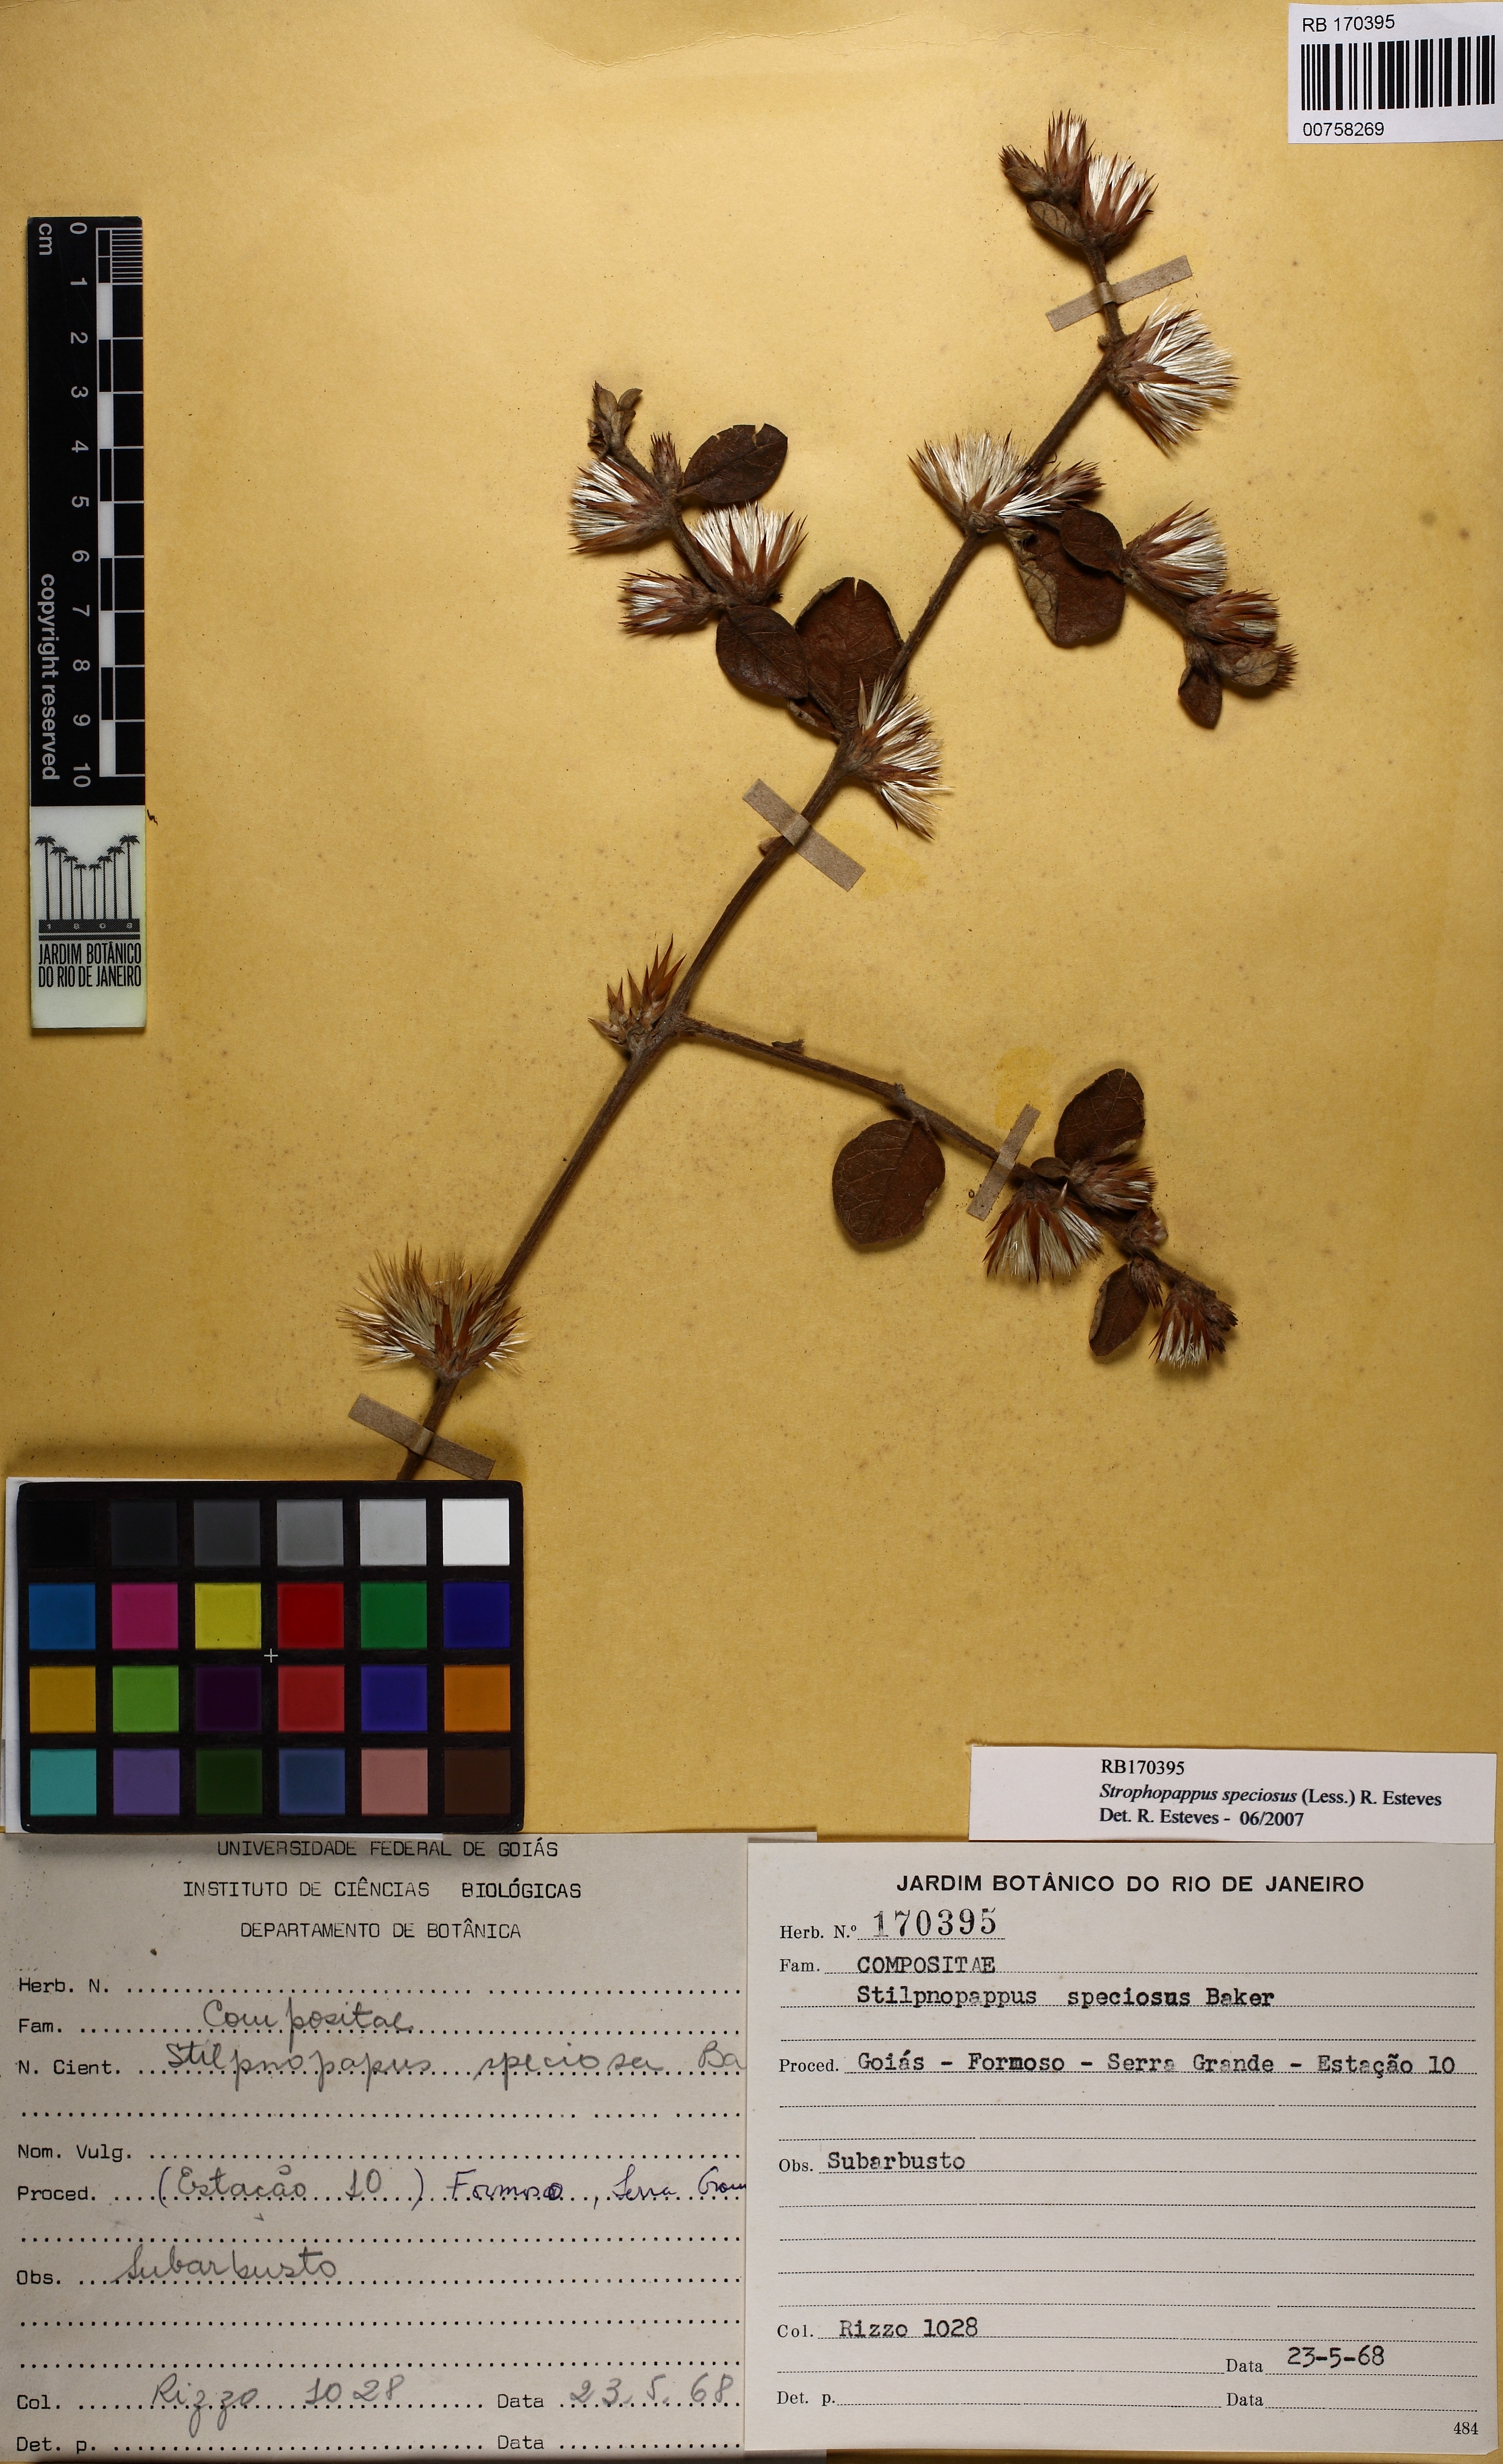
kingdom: Plantae
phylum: Tracheophyta
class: Magnoliopsida
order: Asterales
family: Asteraceae
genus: Stilpnopappus
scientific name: Stilpnopappus speciosus
